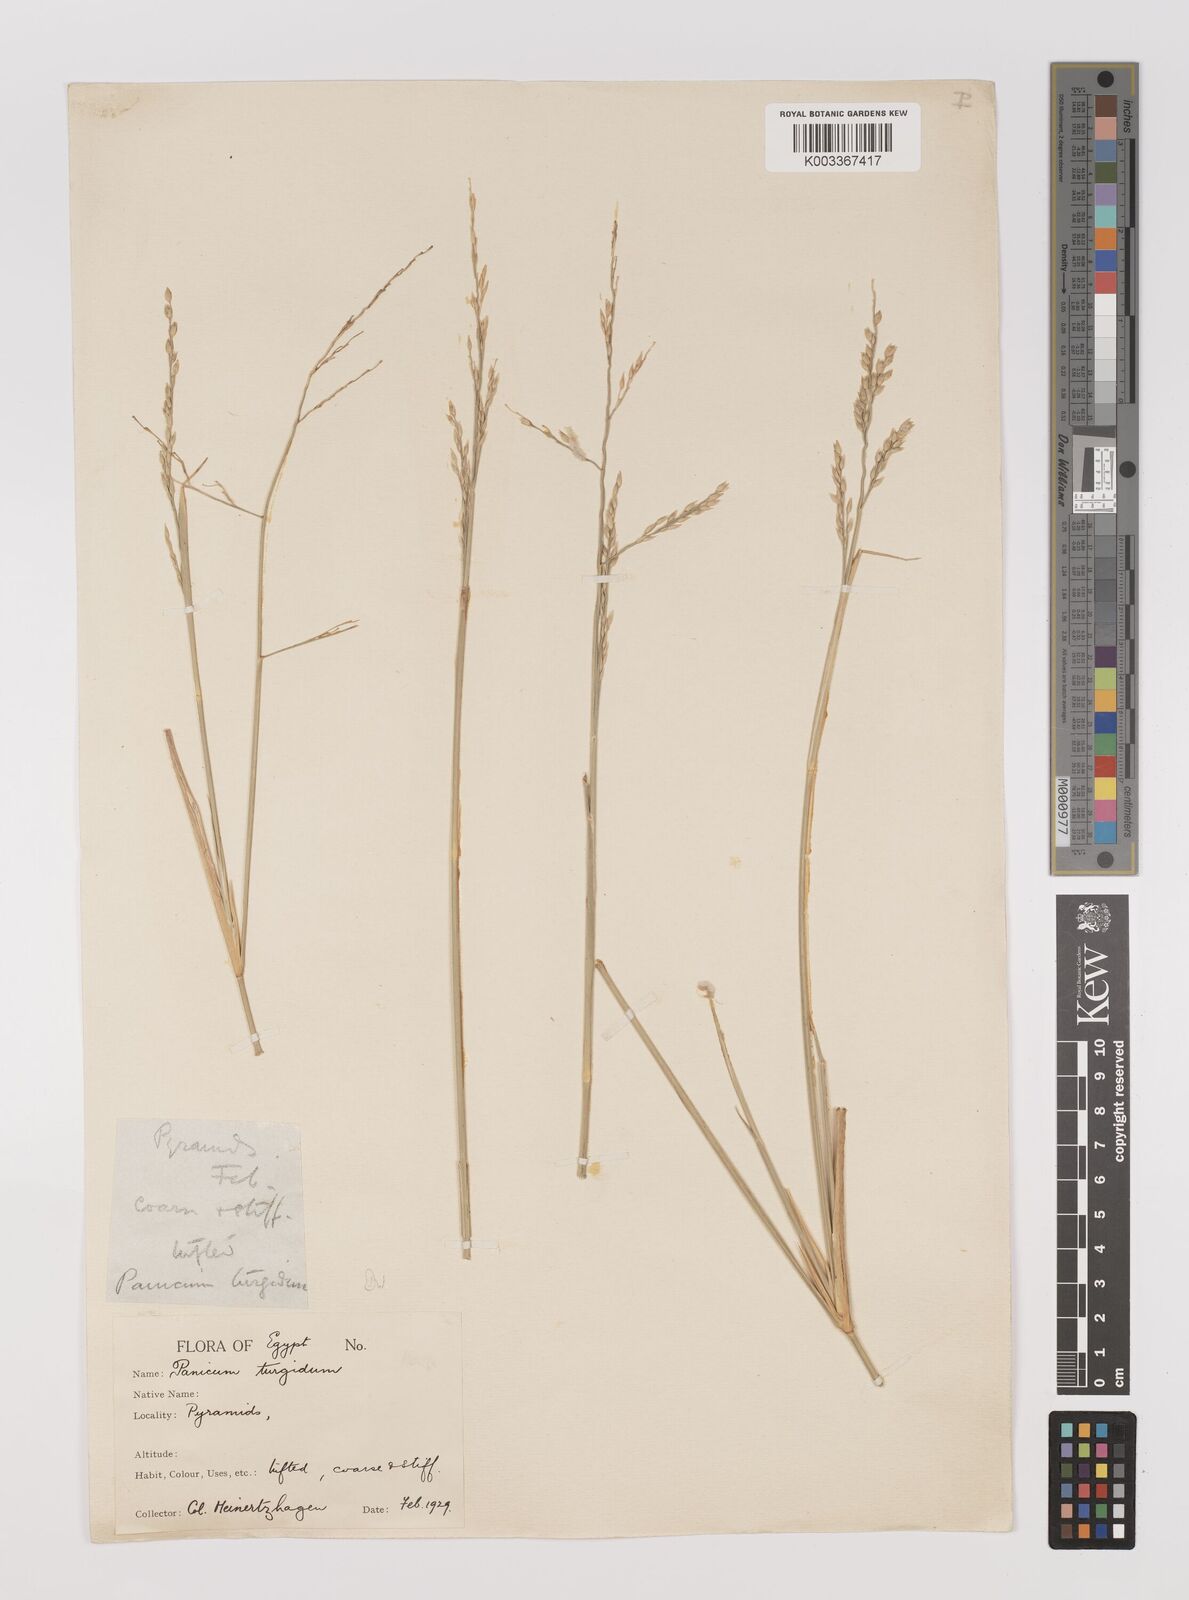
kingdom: Plantae
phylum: Tracheophyta
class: Liliopsida
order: Poales
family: Poaceae
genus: Panicum
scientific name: Panicum turgidum
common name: Desert grass
